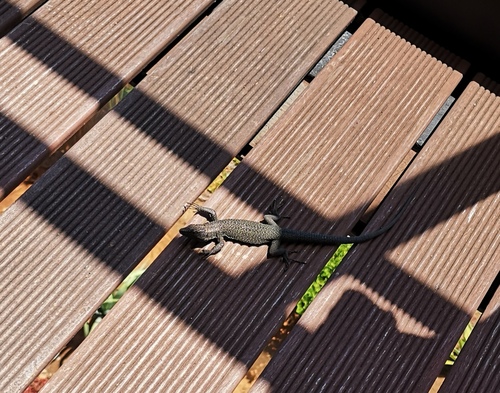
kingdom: Animalia
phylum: Chordata
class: Squamata
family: Lacertidae
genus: Teira
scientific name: Teira dugesii
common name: Madeira lizard
